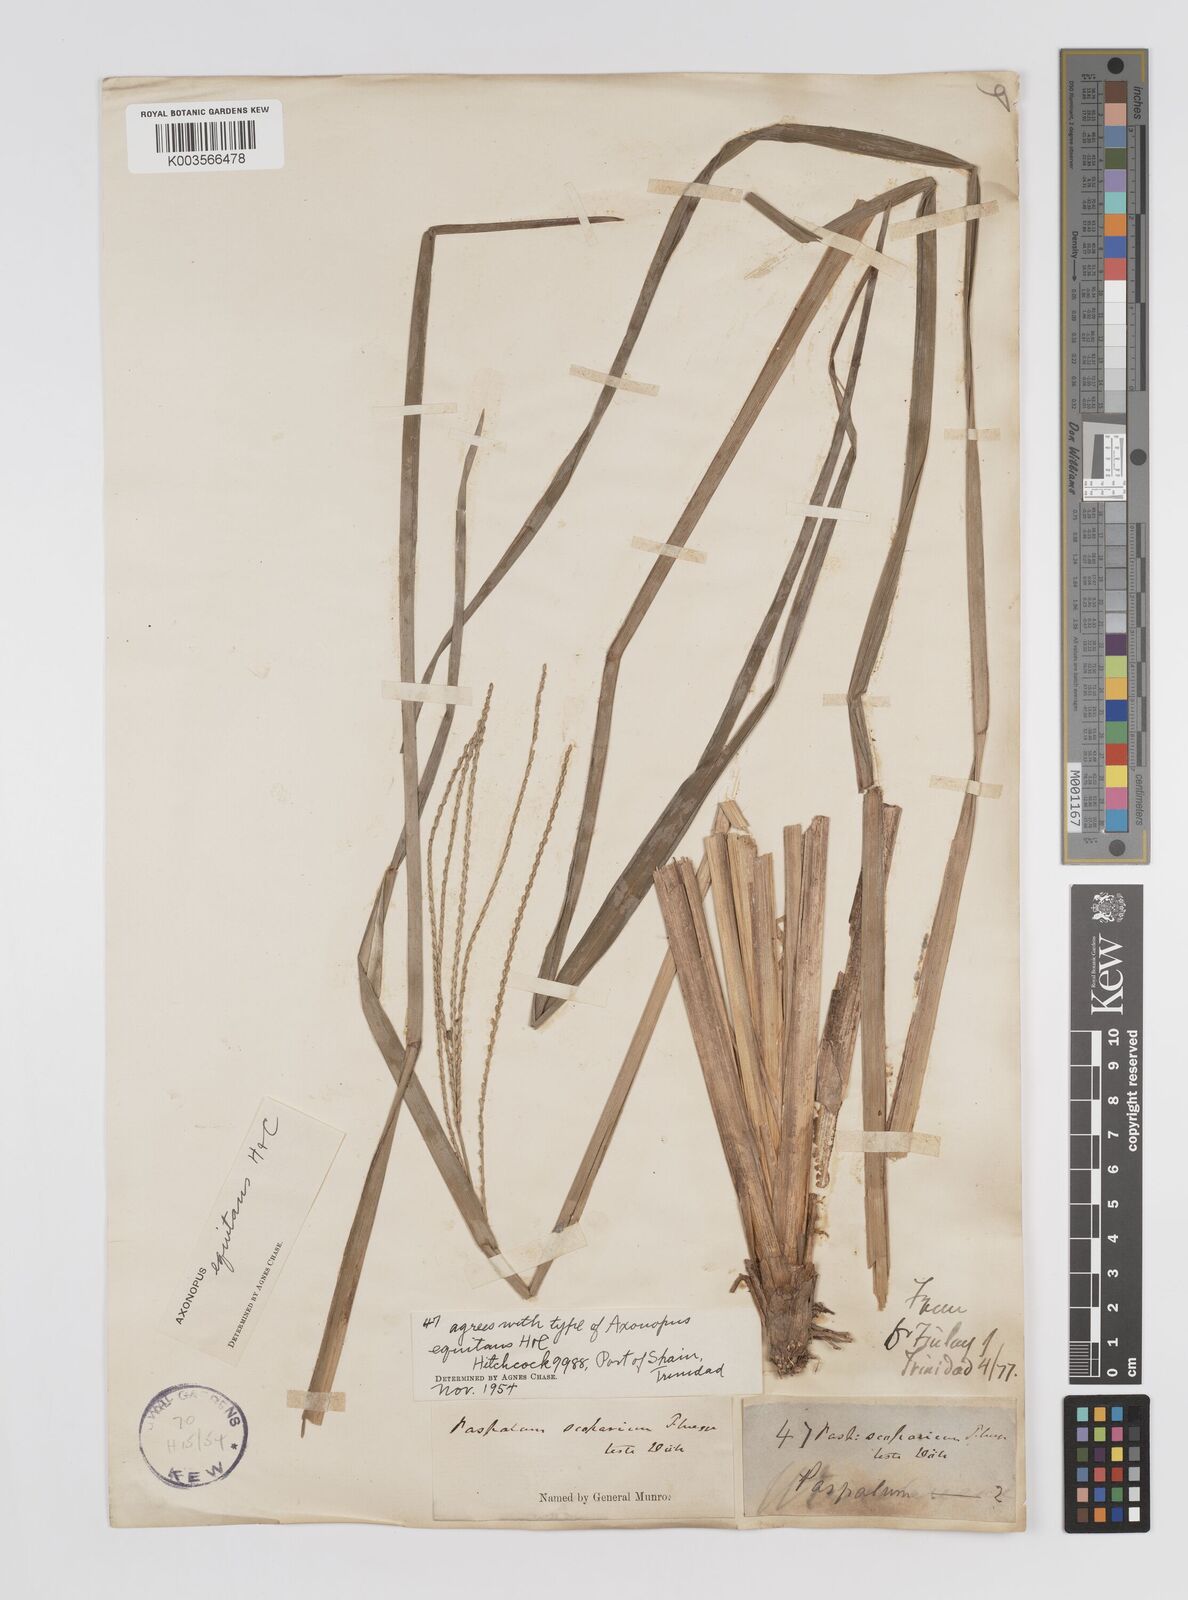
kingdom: Plantae
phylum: Tracheophyta
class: Liliopsida
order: Poales
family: Poaceae
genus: Axonopus
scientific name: Axonopus equitans
